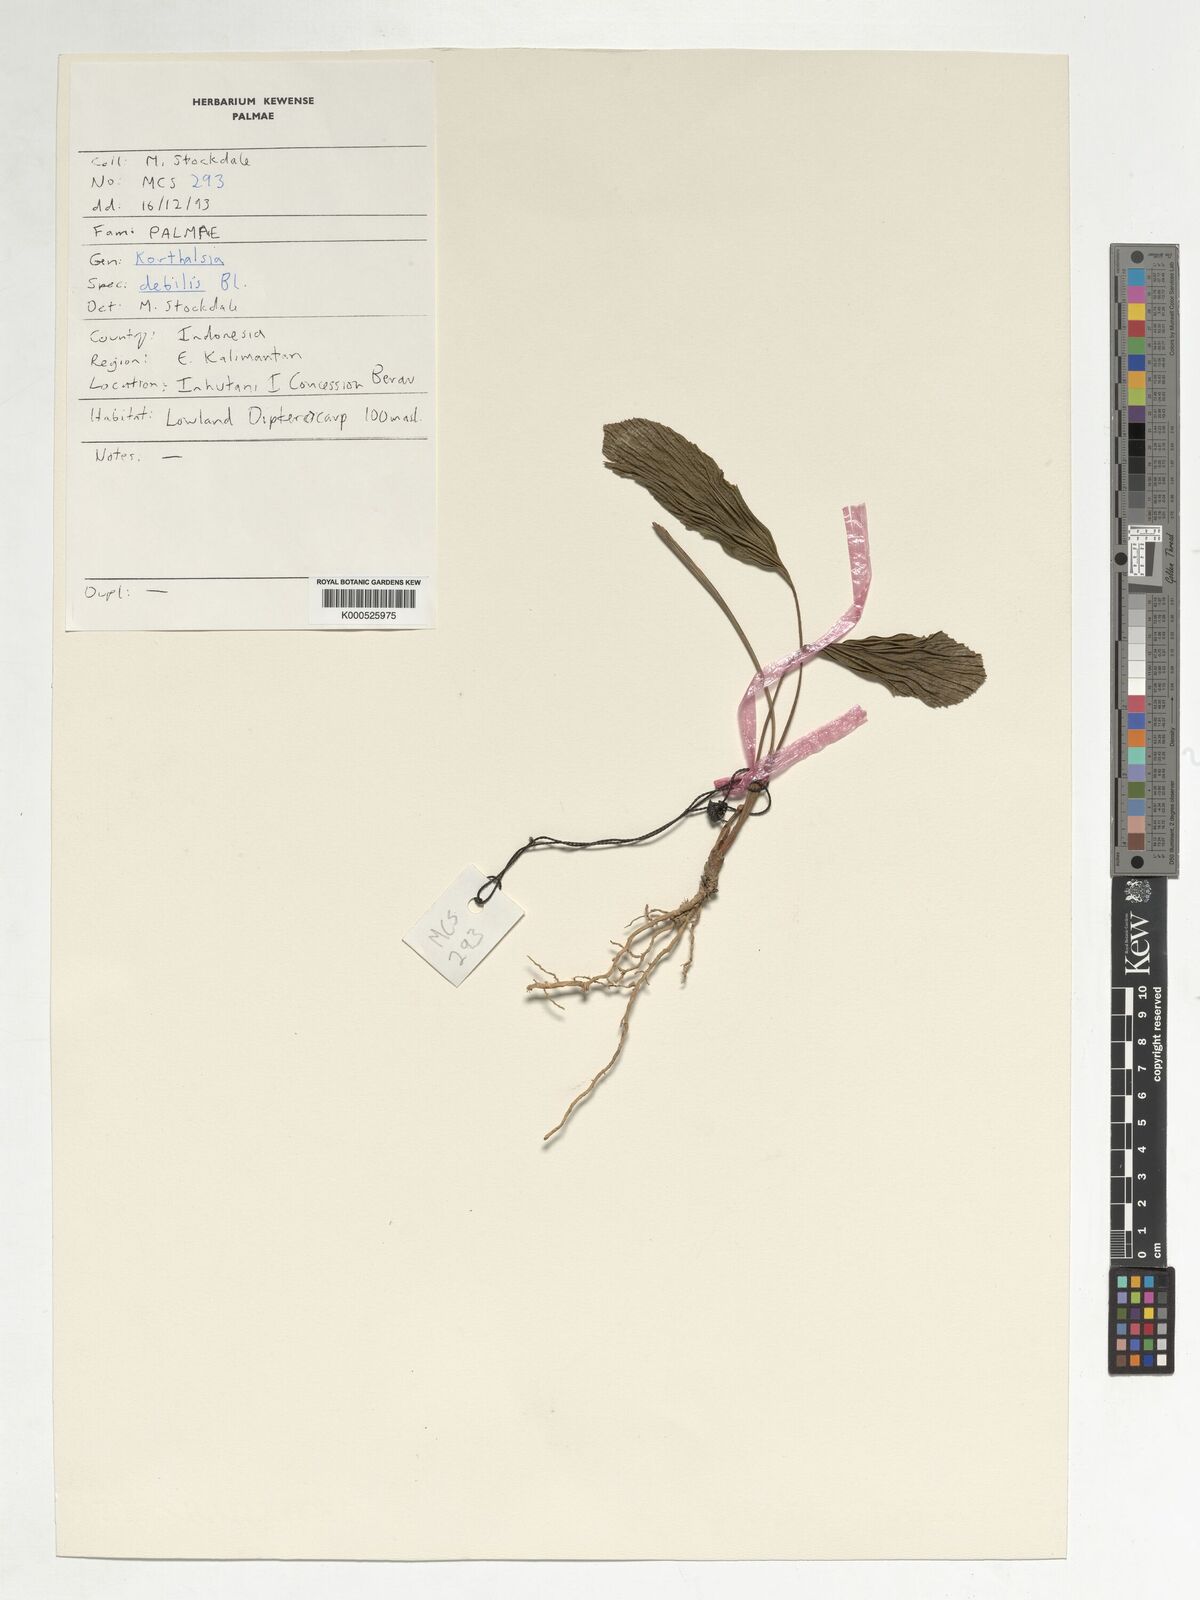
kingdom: Plantae
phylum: Tracheophyta
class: Liliopsida
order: Arecales
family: Arecaceae
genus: Korthalsia
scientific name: Korthalsia debilis
